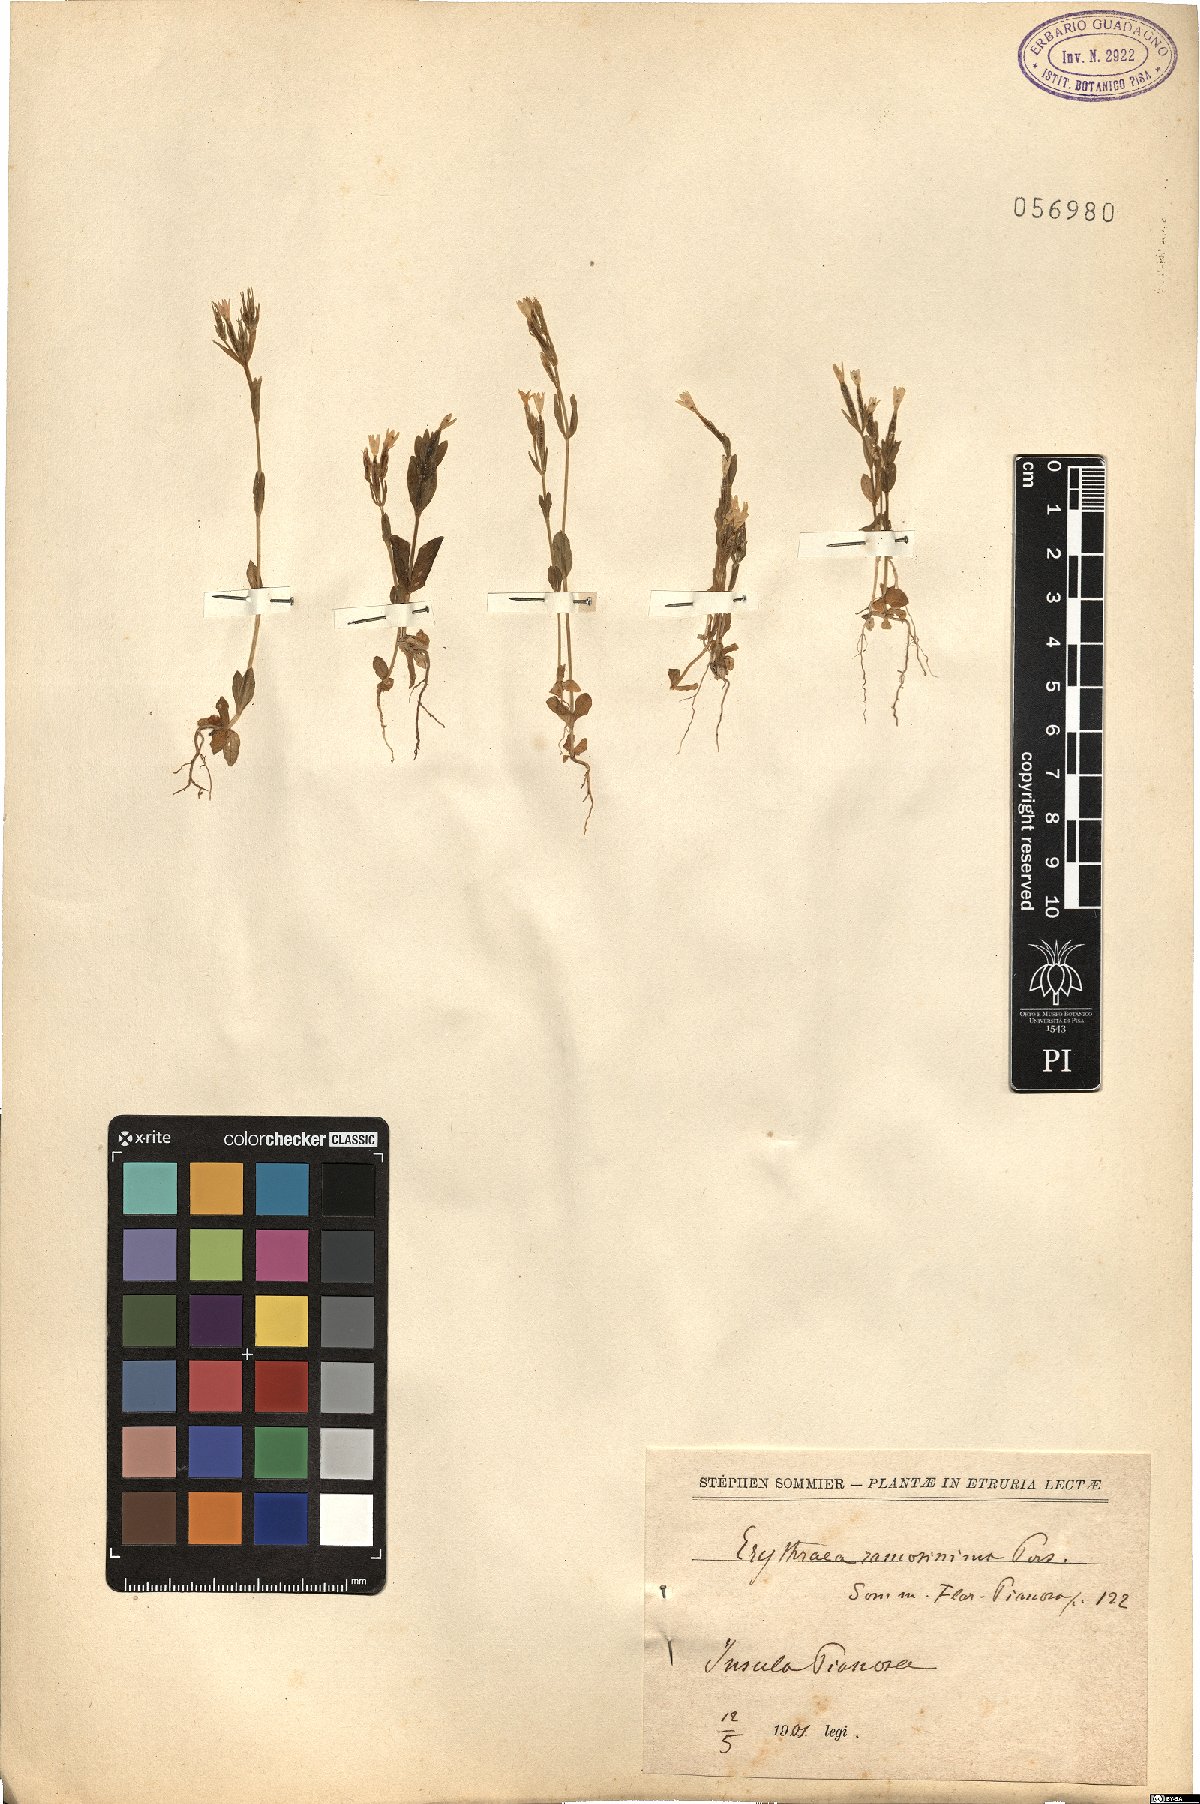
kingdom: Plantae
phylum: Tracheophyta
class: Magnoliopsida
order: Gentianales
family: Gentianaceae
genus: Centaurium
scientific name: Centaurium pulchellum
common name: Lesser centaury
